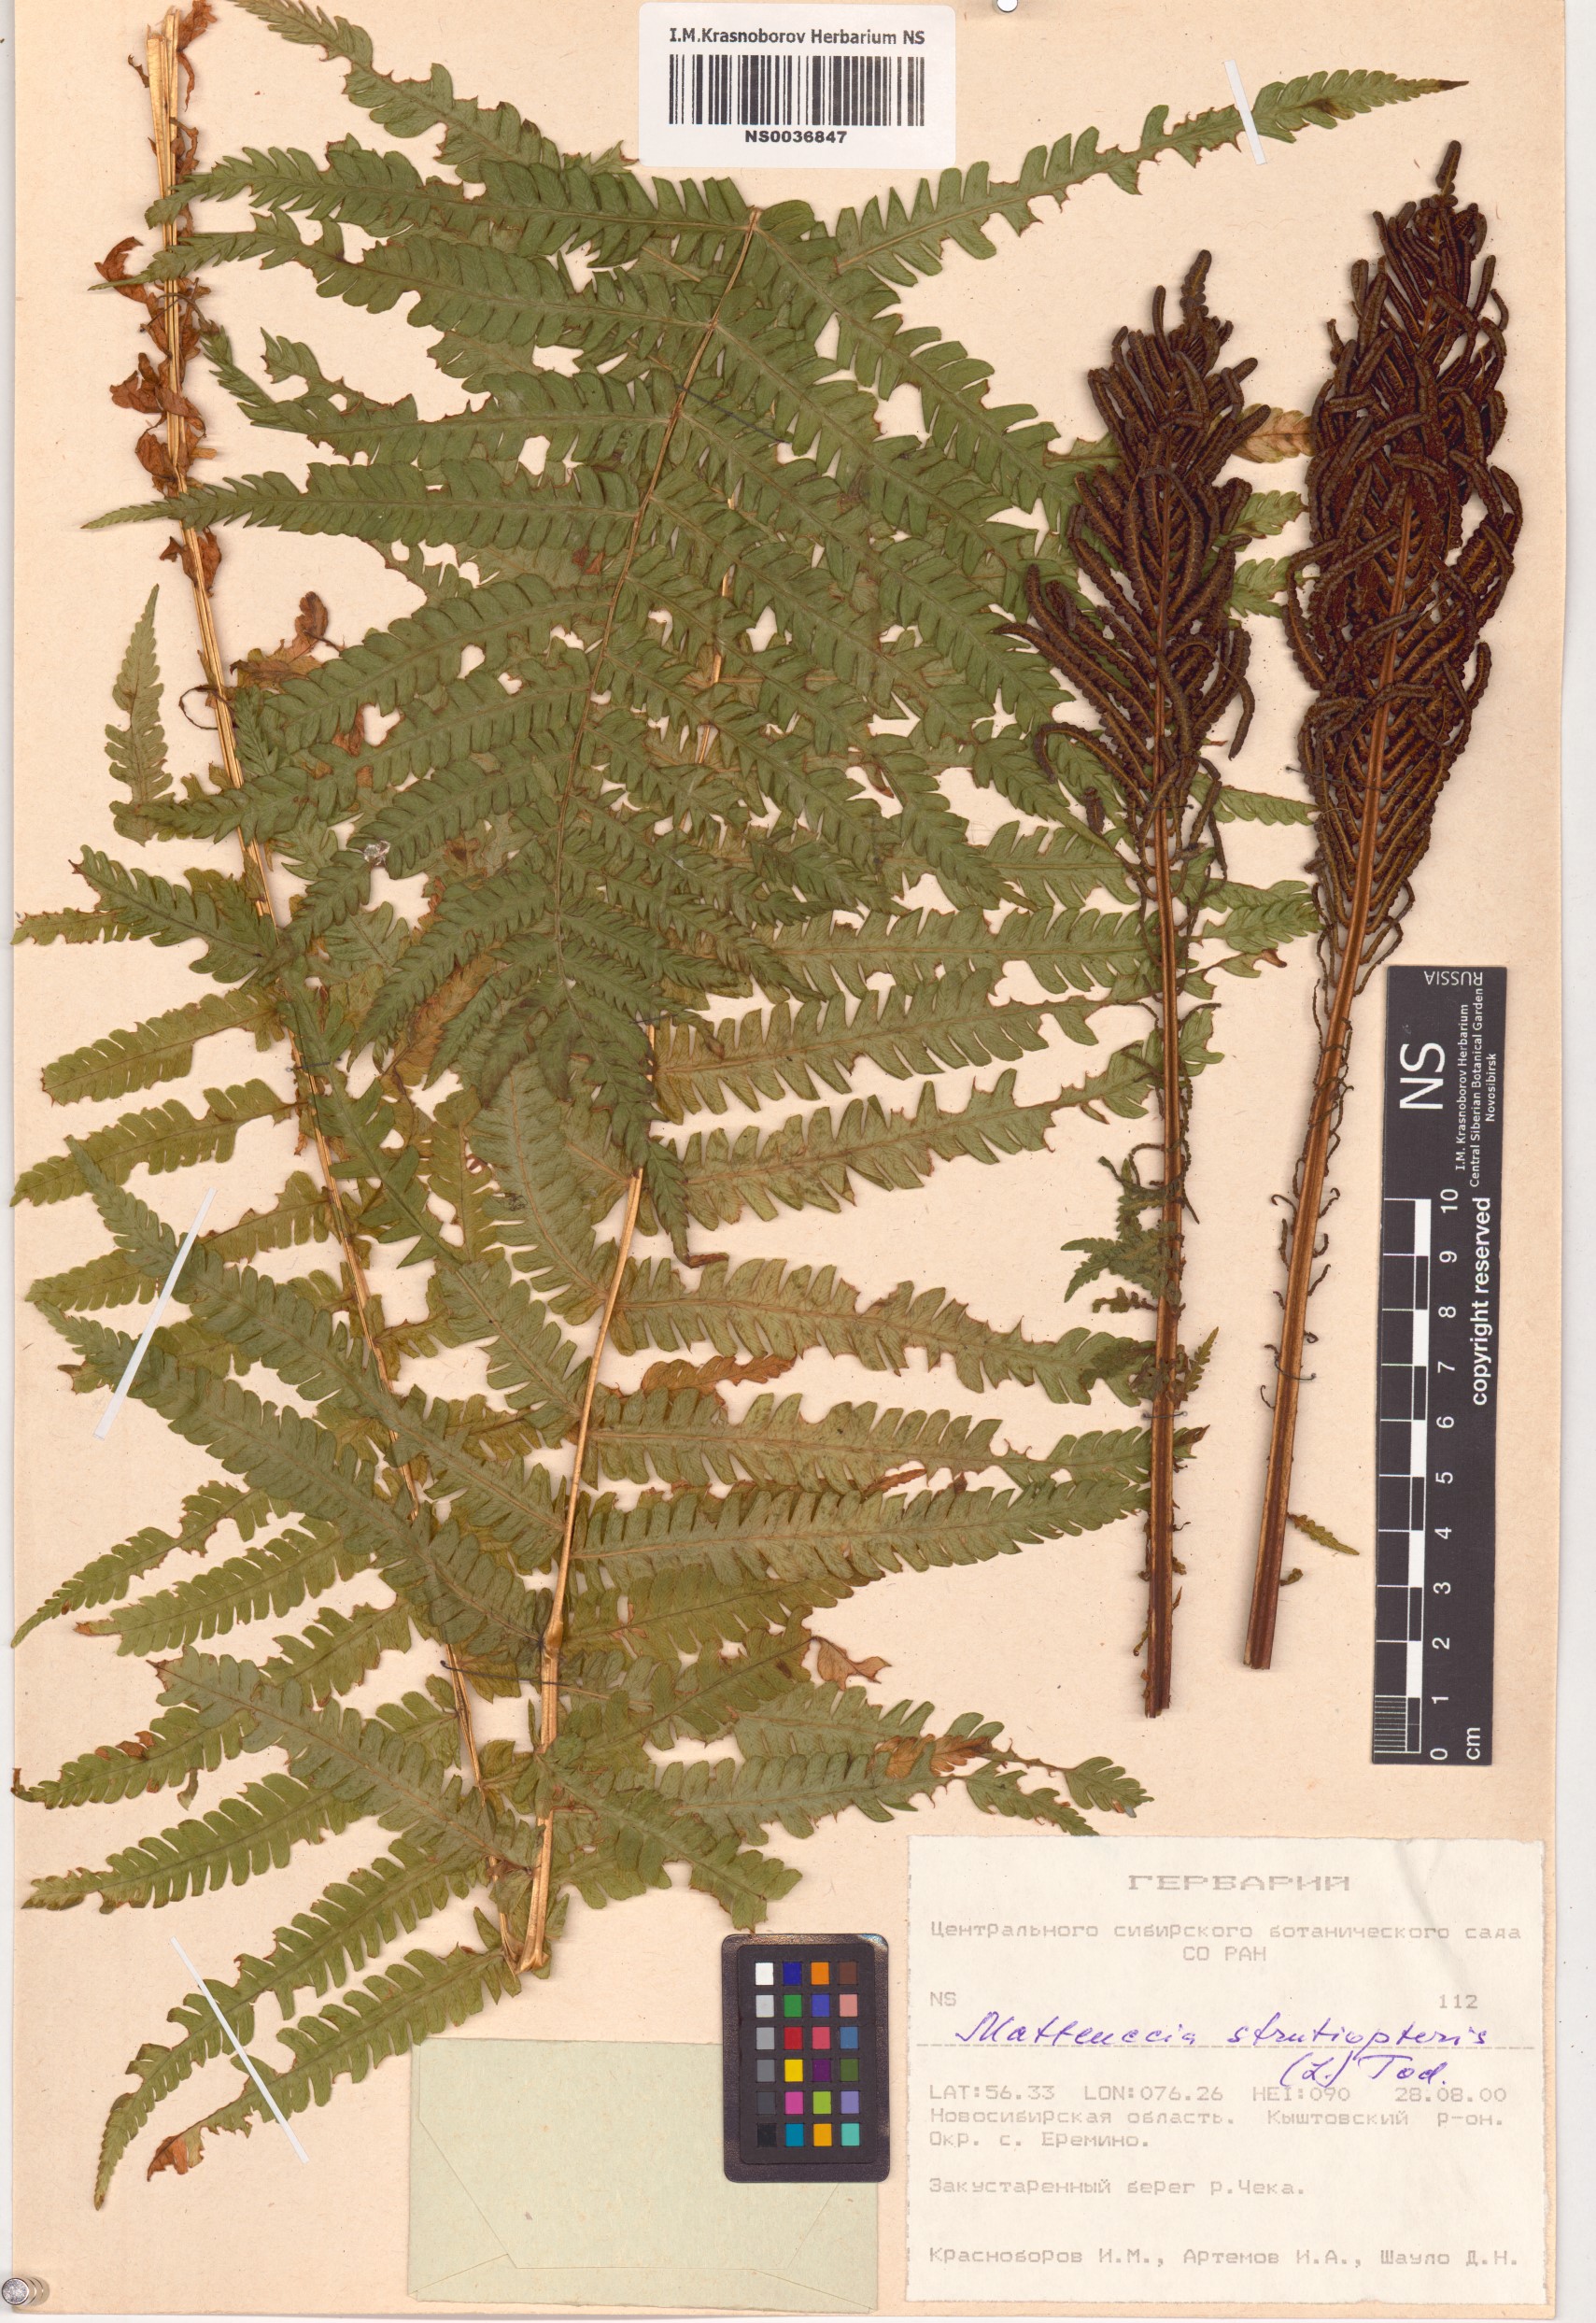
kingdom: Plantae
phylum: Tracheophyta
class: Polypodiopsida
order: Polypodiales
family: Onocleaceae
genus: Matteuccia
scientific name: Matteuccia struthiopteris
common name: Ostrich fern
